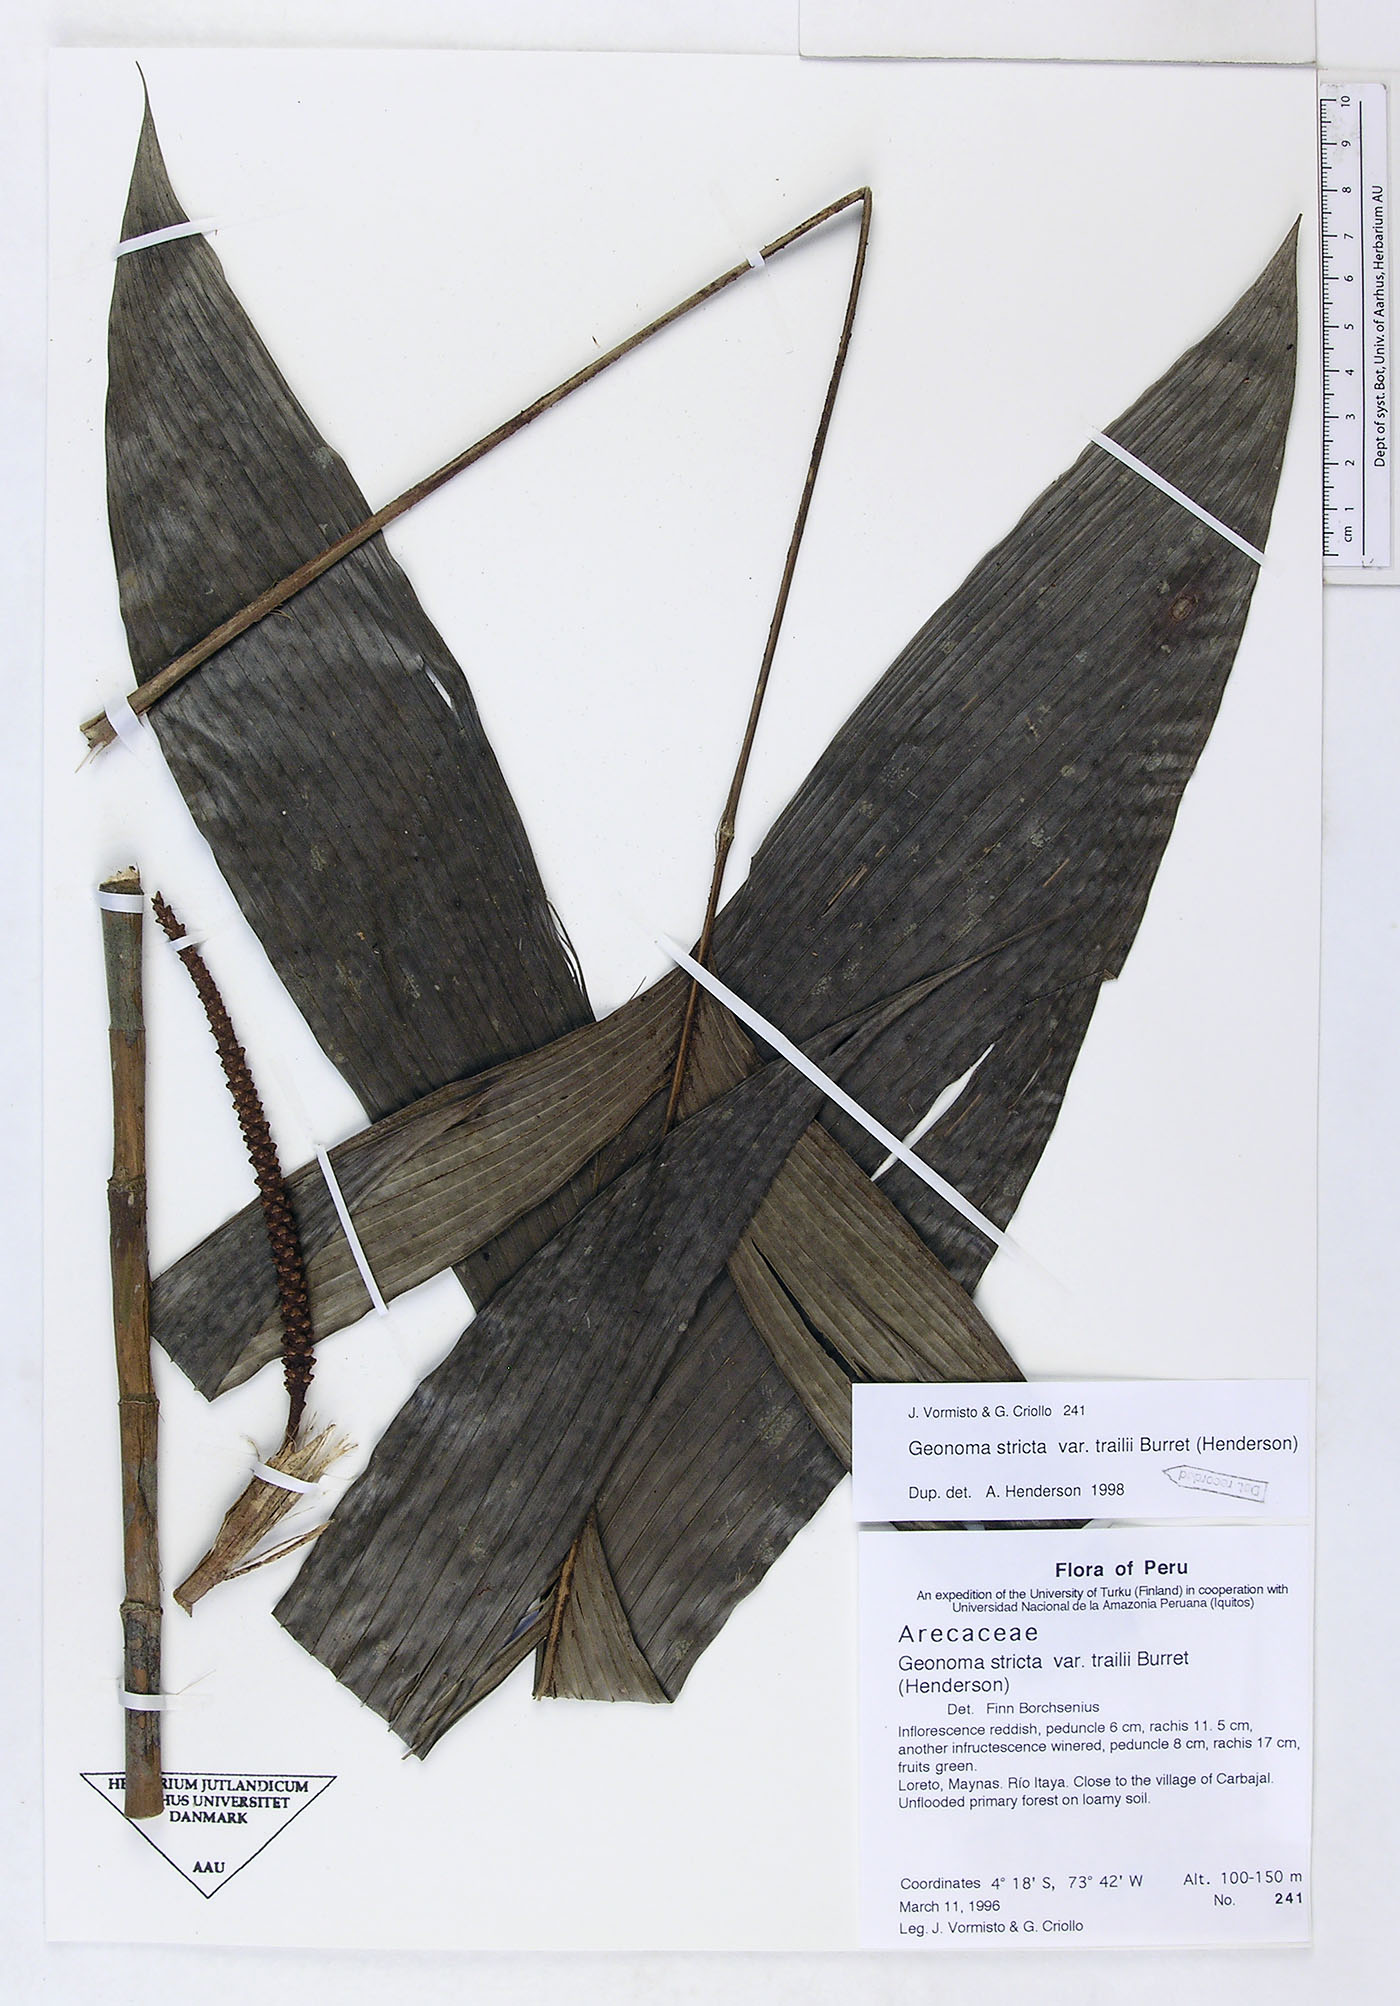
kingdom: Plantae
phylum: Tracheophyta
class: Liliopsida
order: Arecales
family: Arecaceae
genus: Geonoma
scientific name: Geonoma stricta
